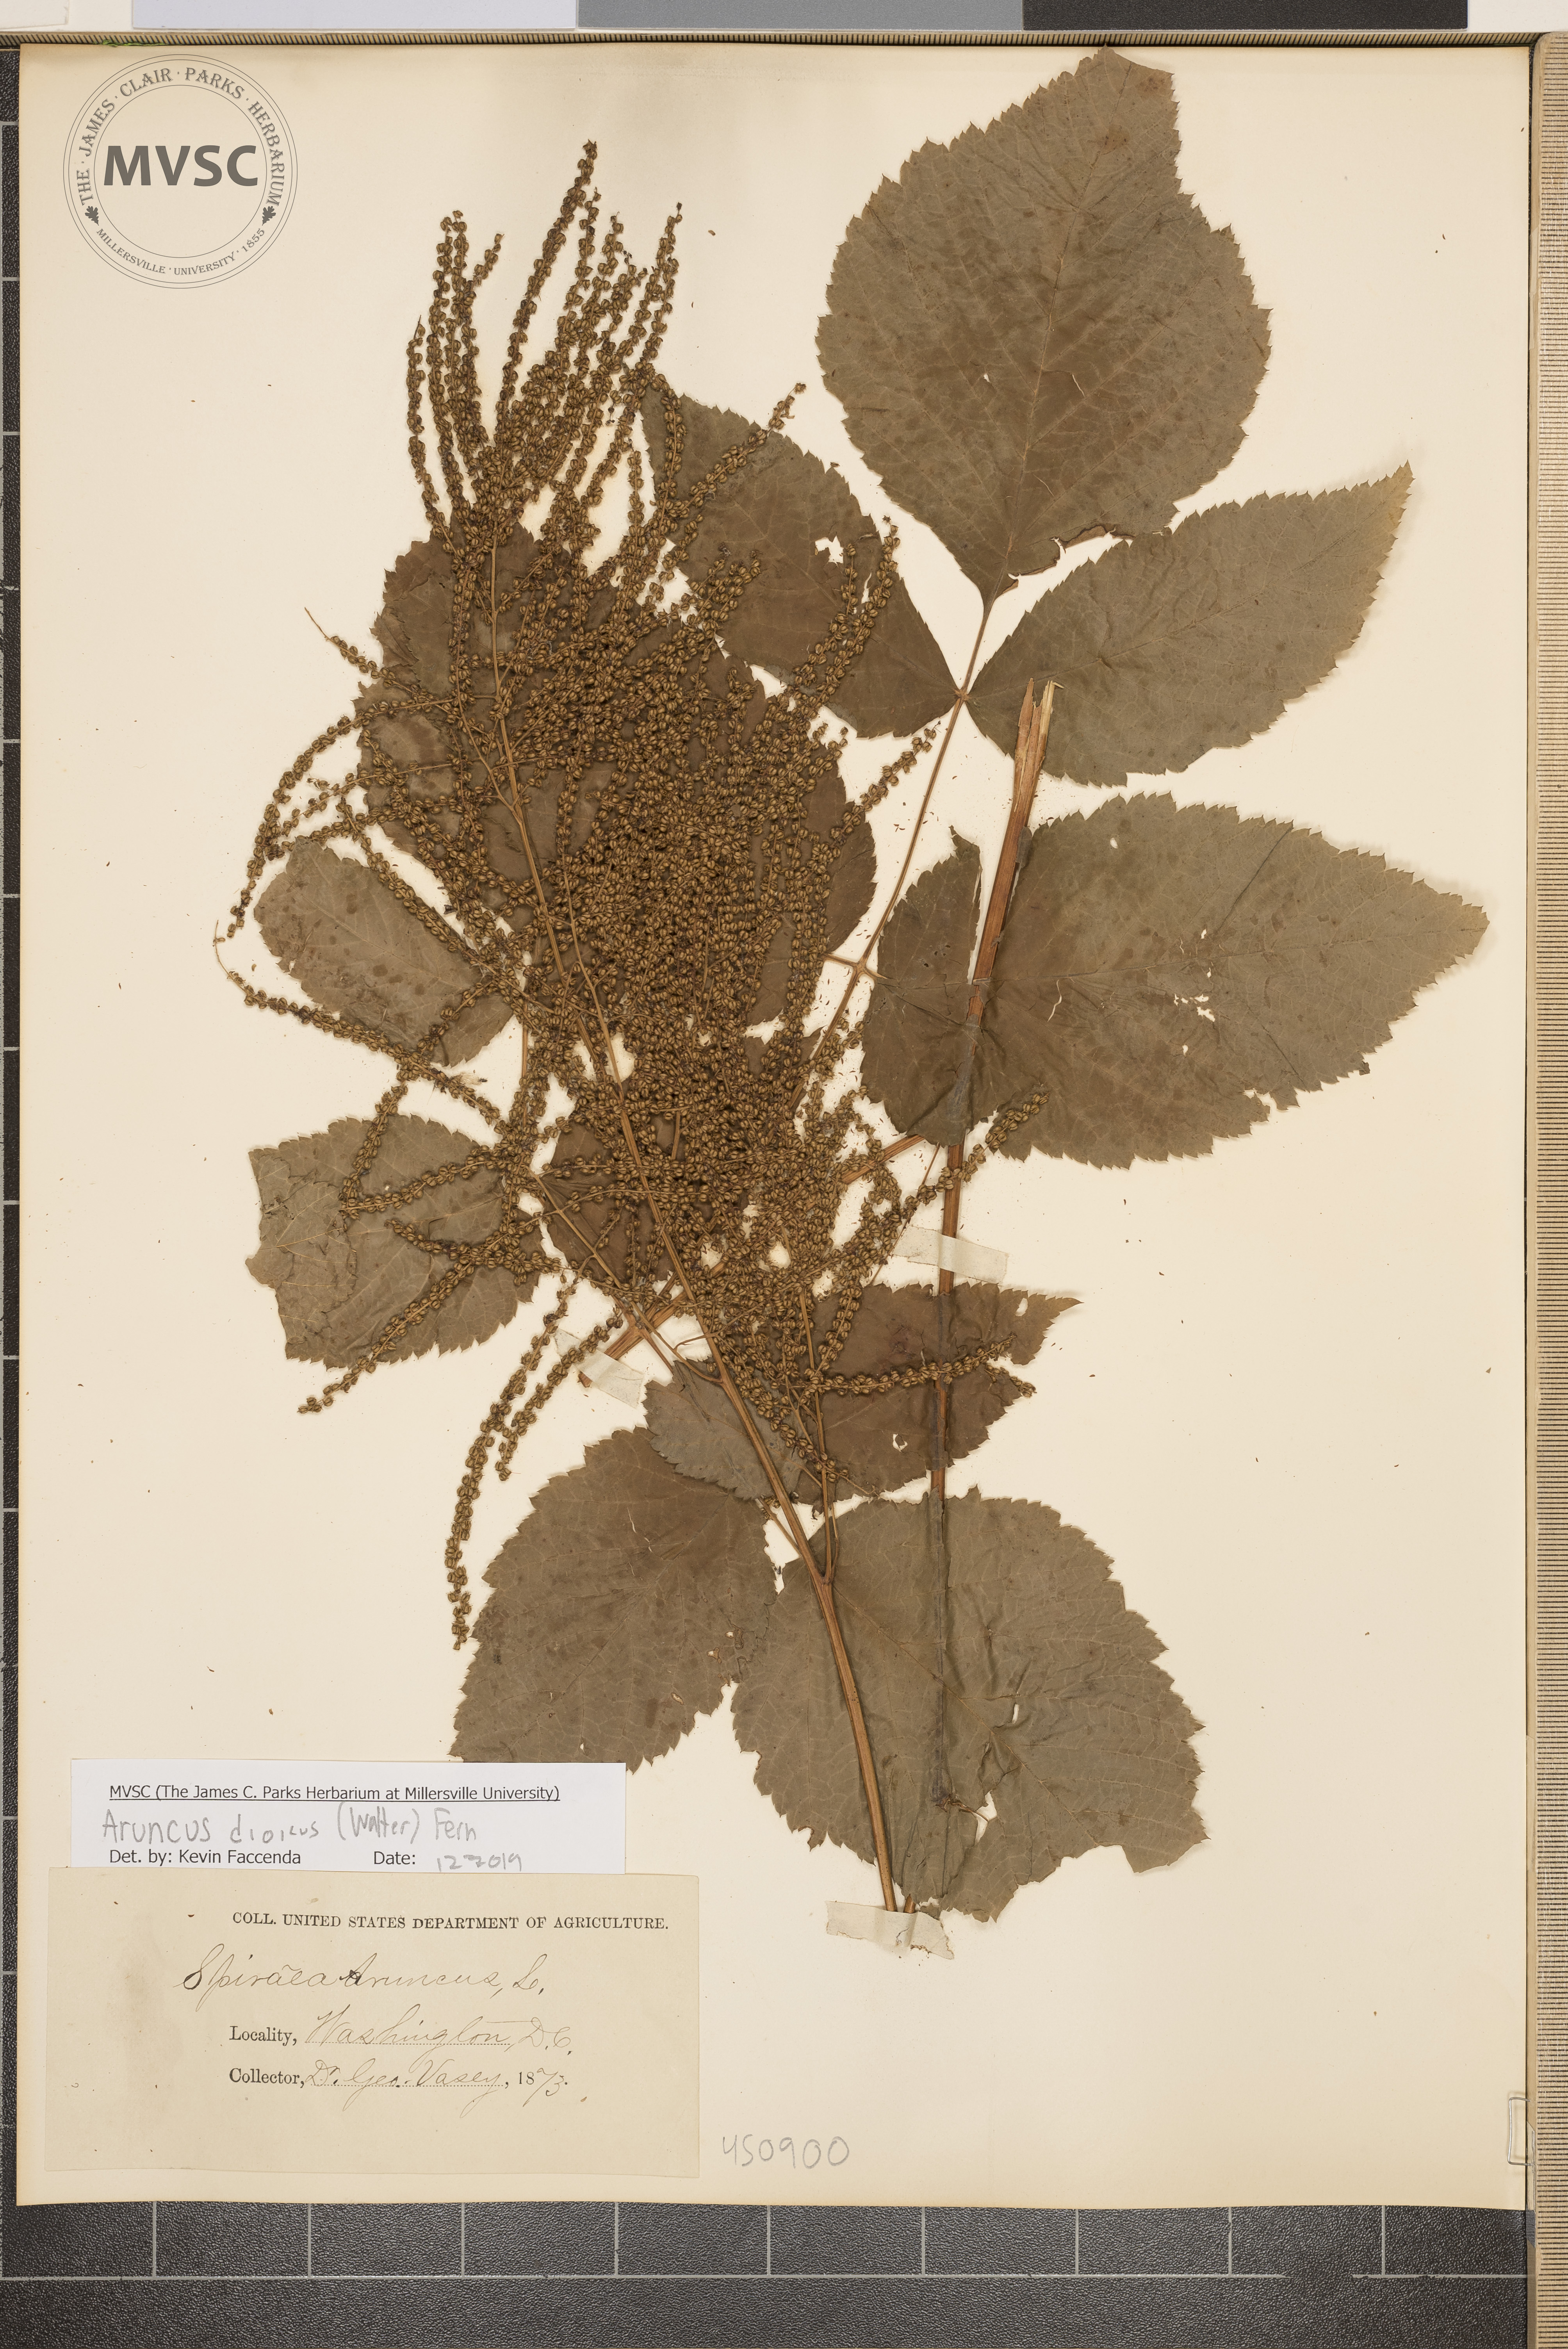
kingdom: Plantae
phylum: Tracheophyta
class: Magnoliopsida
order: Rosales
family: Rosaceae
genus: Aruncus
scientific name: Aruncus dioicus
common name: Buck's-beard
